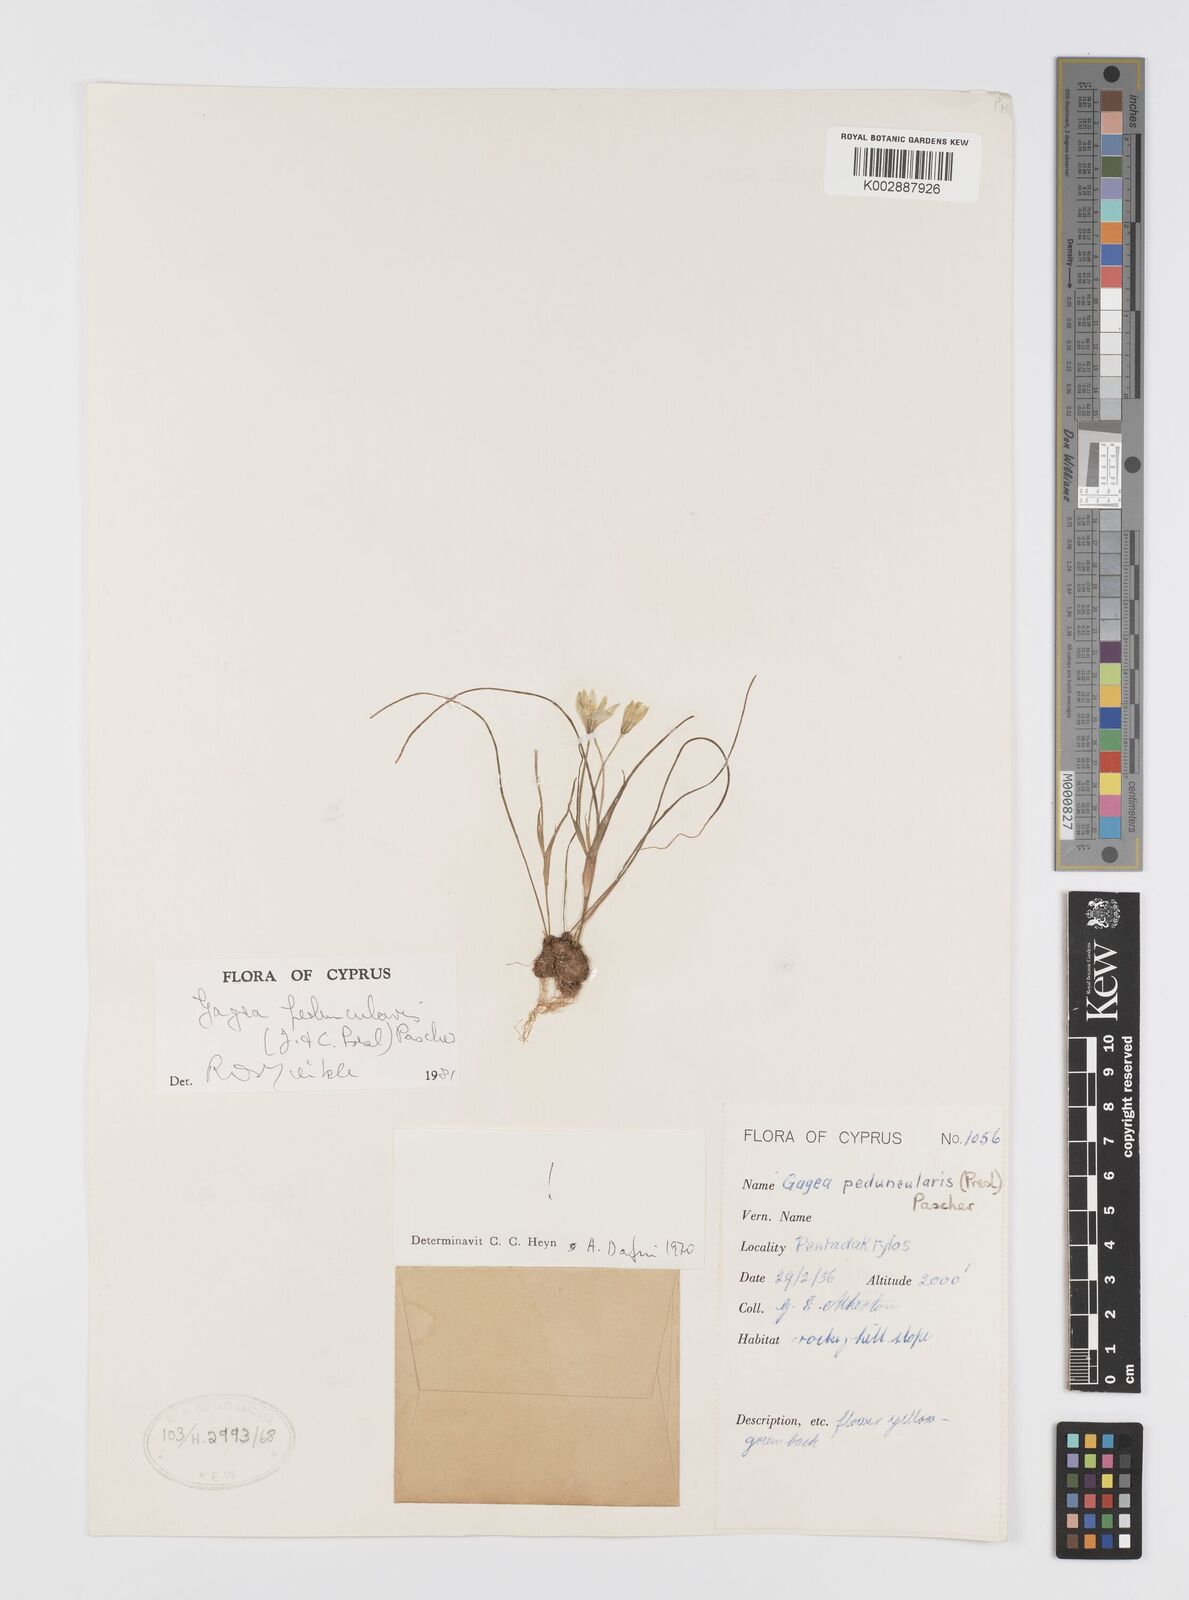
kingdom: Plantae
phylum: Tracheophyta
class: Liliopsida
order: Liliales
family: Liliaceae
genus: Gagea
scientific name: Gagea peduncularis
